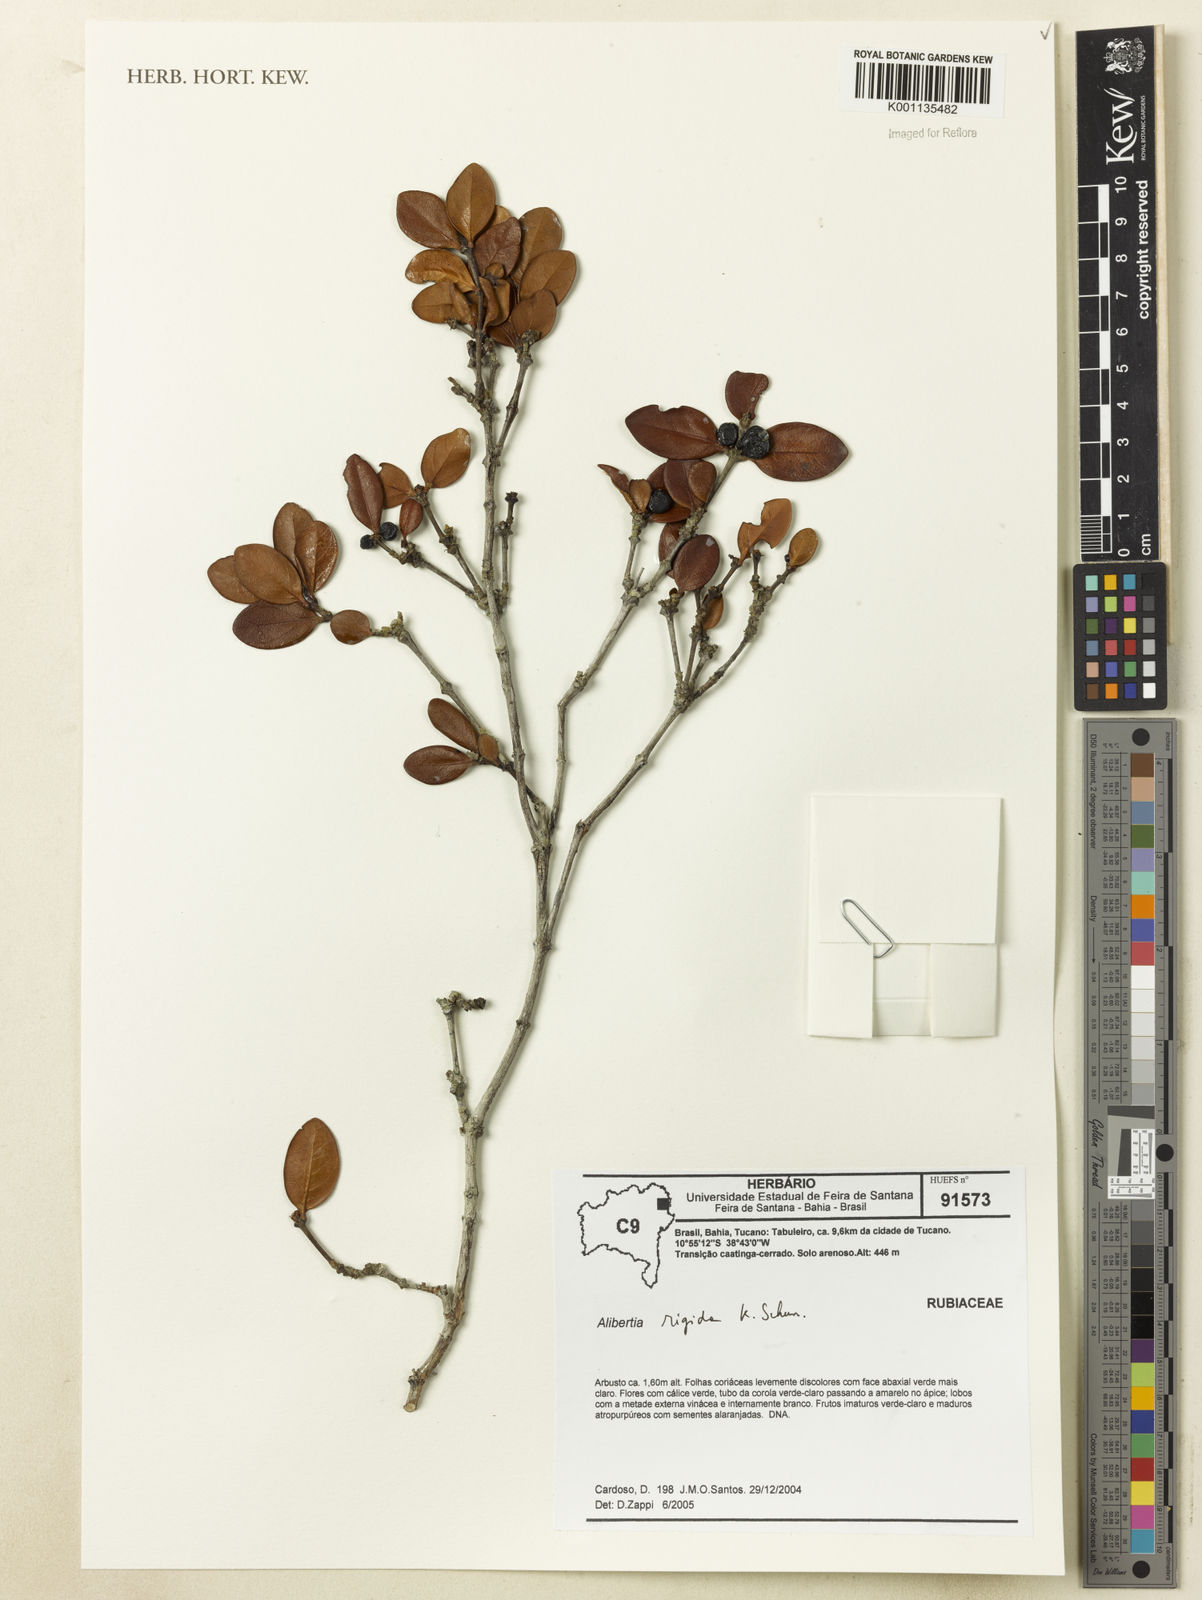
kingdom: Plantae
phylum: Tracheophyta
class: Magnoliopsida
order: Gentianales
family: Rubiaceae
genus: Cordiera
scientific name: Cordiera rigida
